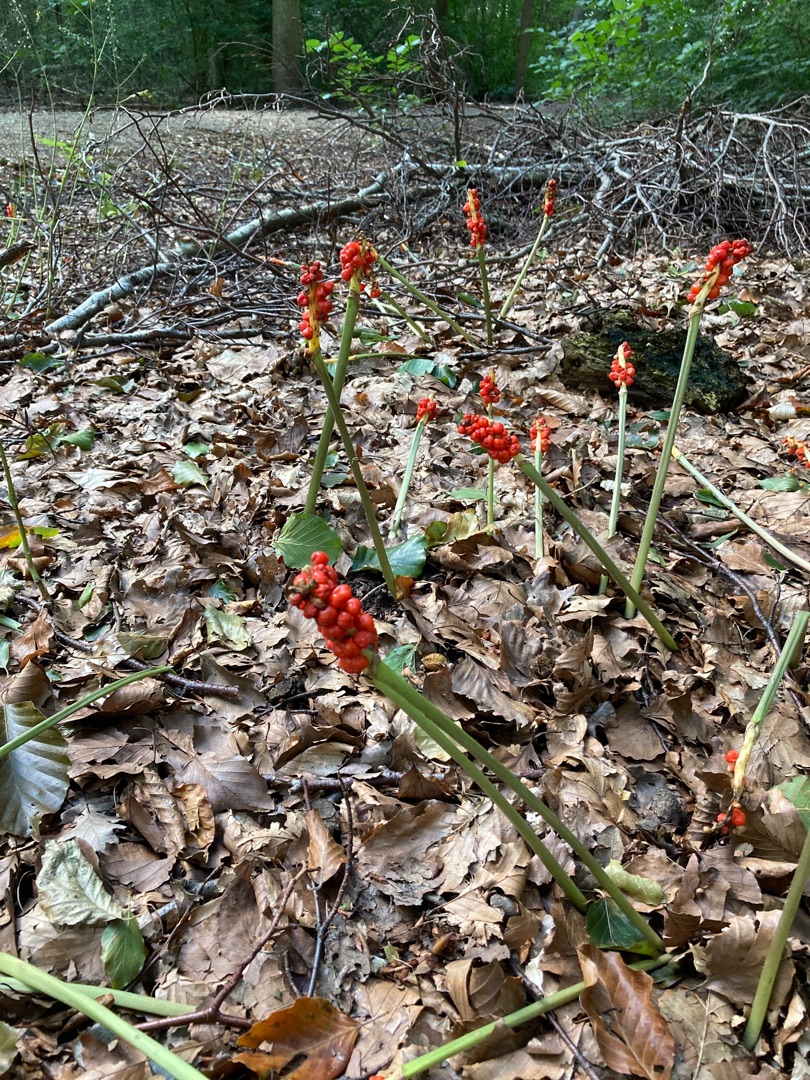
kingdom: Plantae
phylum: Tracheophyta
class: Liliopsida
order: Alismatales
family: Araceae
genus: Arum
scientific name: Arum
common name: Arumslægten
